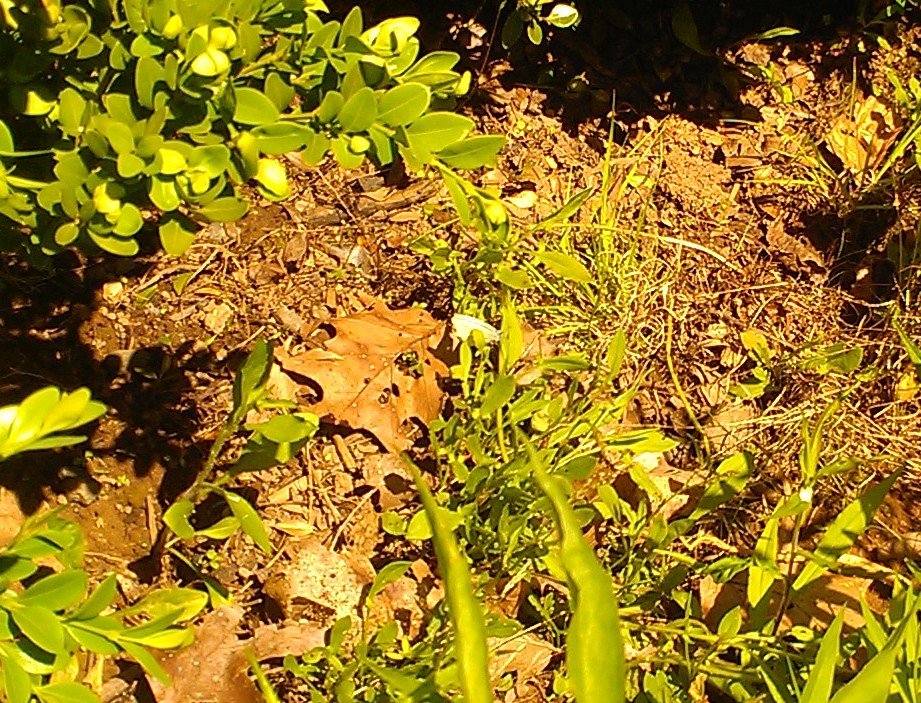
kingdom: Animalia
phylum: Arthropoda
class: Insecta
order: Lepidoptera
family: Pieridae
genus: Pieris
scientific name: Pieris rapae
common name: Cabbage White
